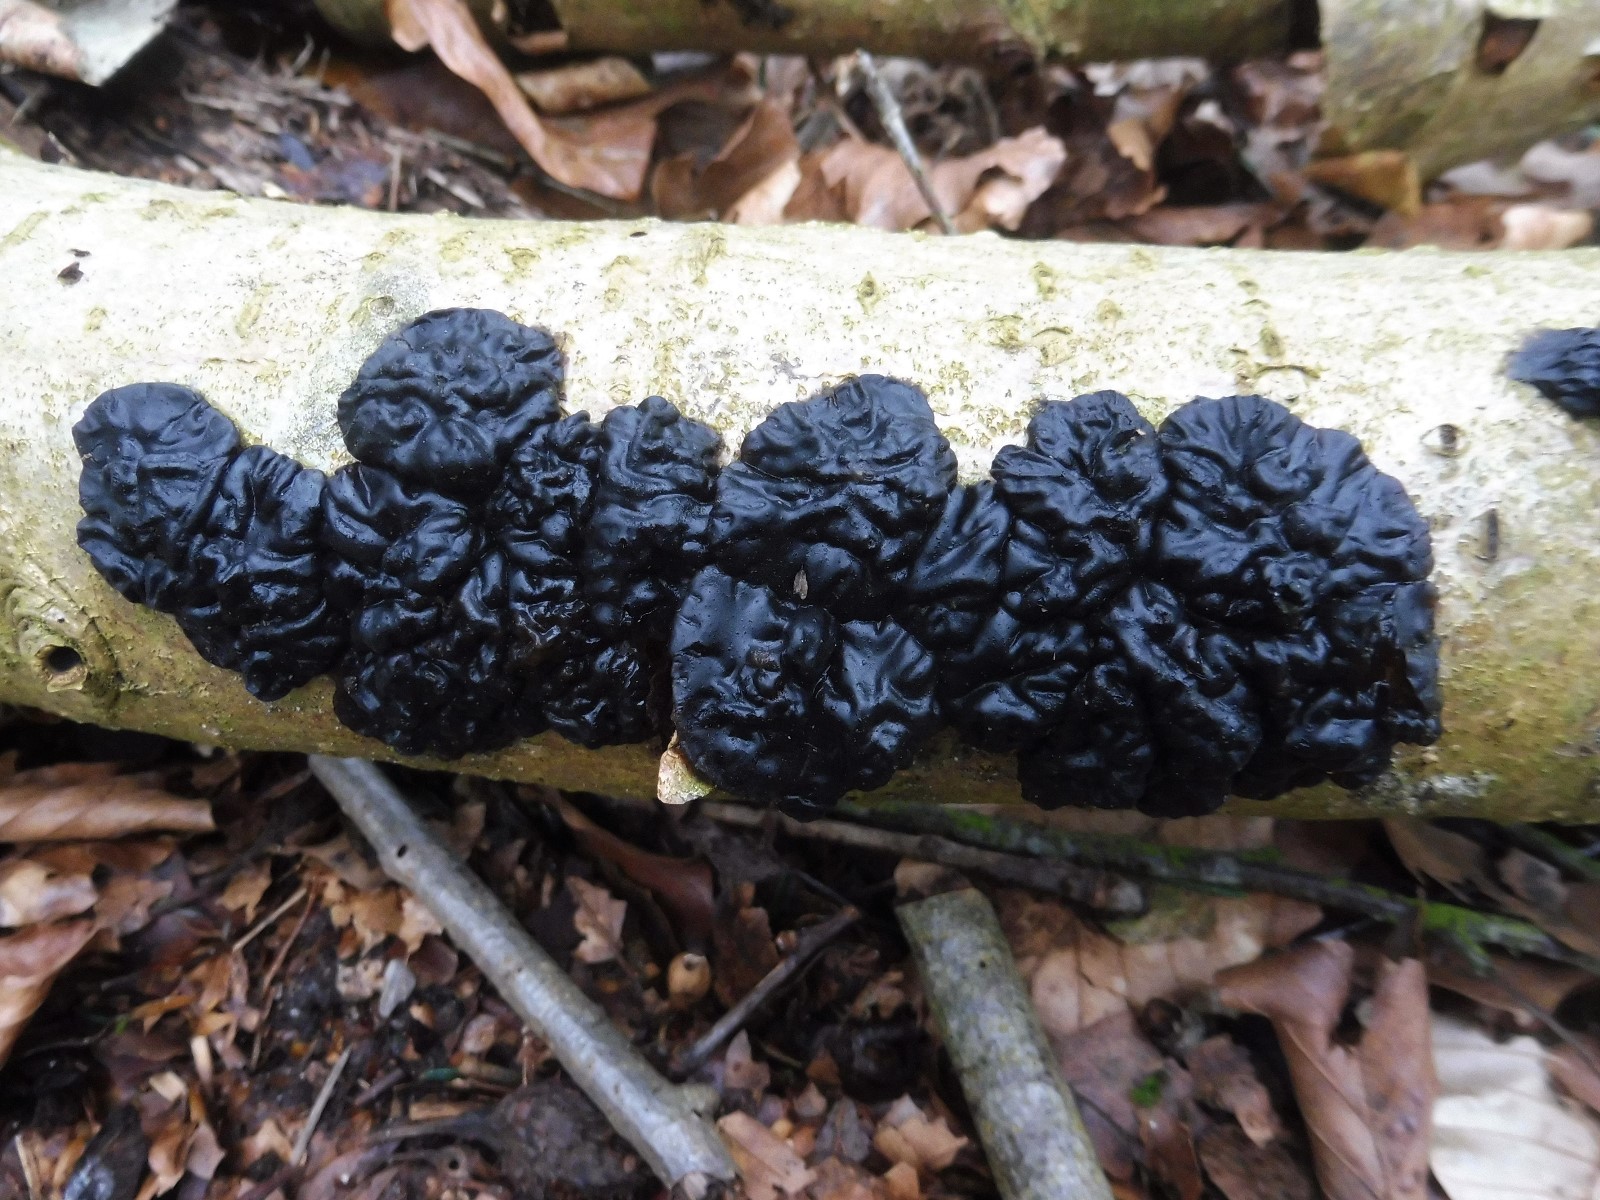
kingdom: Fungi
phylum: Basidiomycota
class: Agaricomycetes
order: Auriculariales
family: Auriculariaceae
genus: Exidia
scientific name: Exidia nigricans
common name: almindelig bævretop
